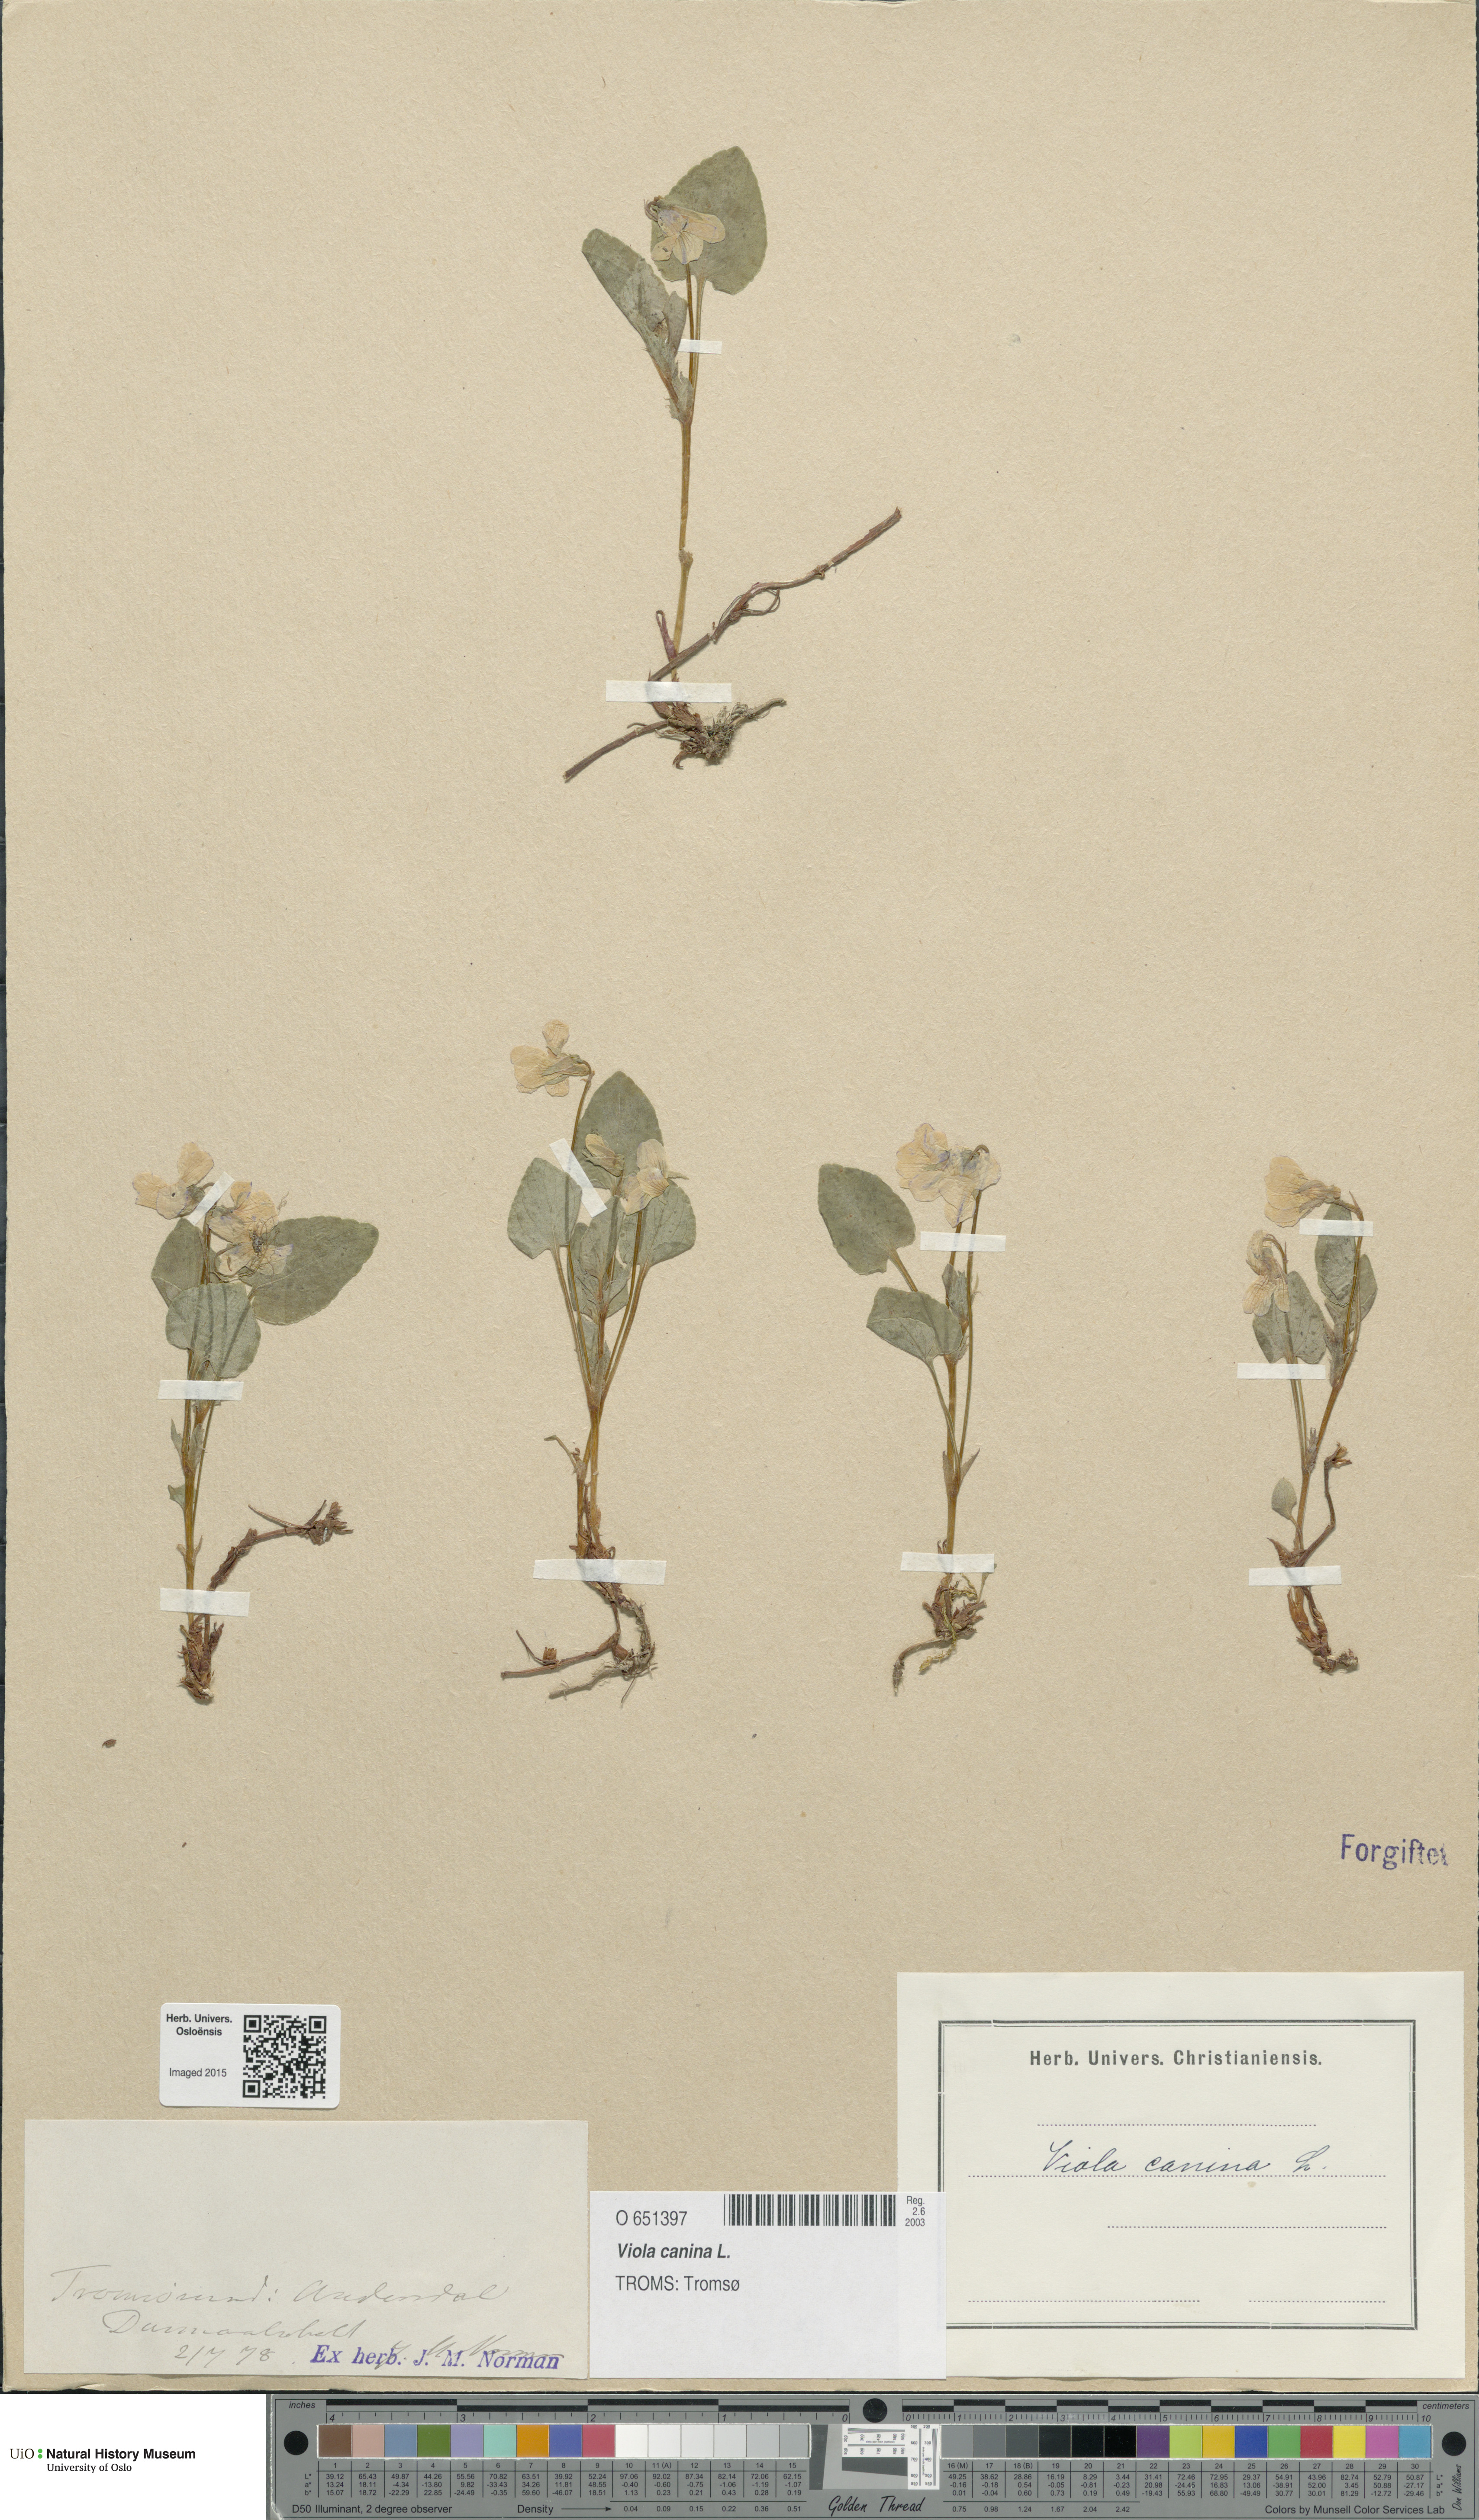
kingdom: Plantae
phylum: Tracheophyta
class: Magnoliopsida
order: Malpighiales
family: Violaceae
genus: Viola
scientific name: Viola canina
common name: Heath dog-violet
